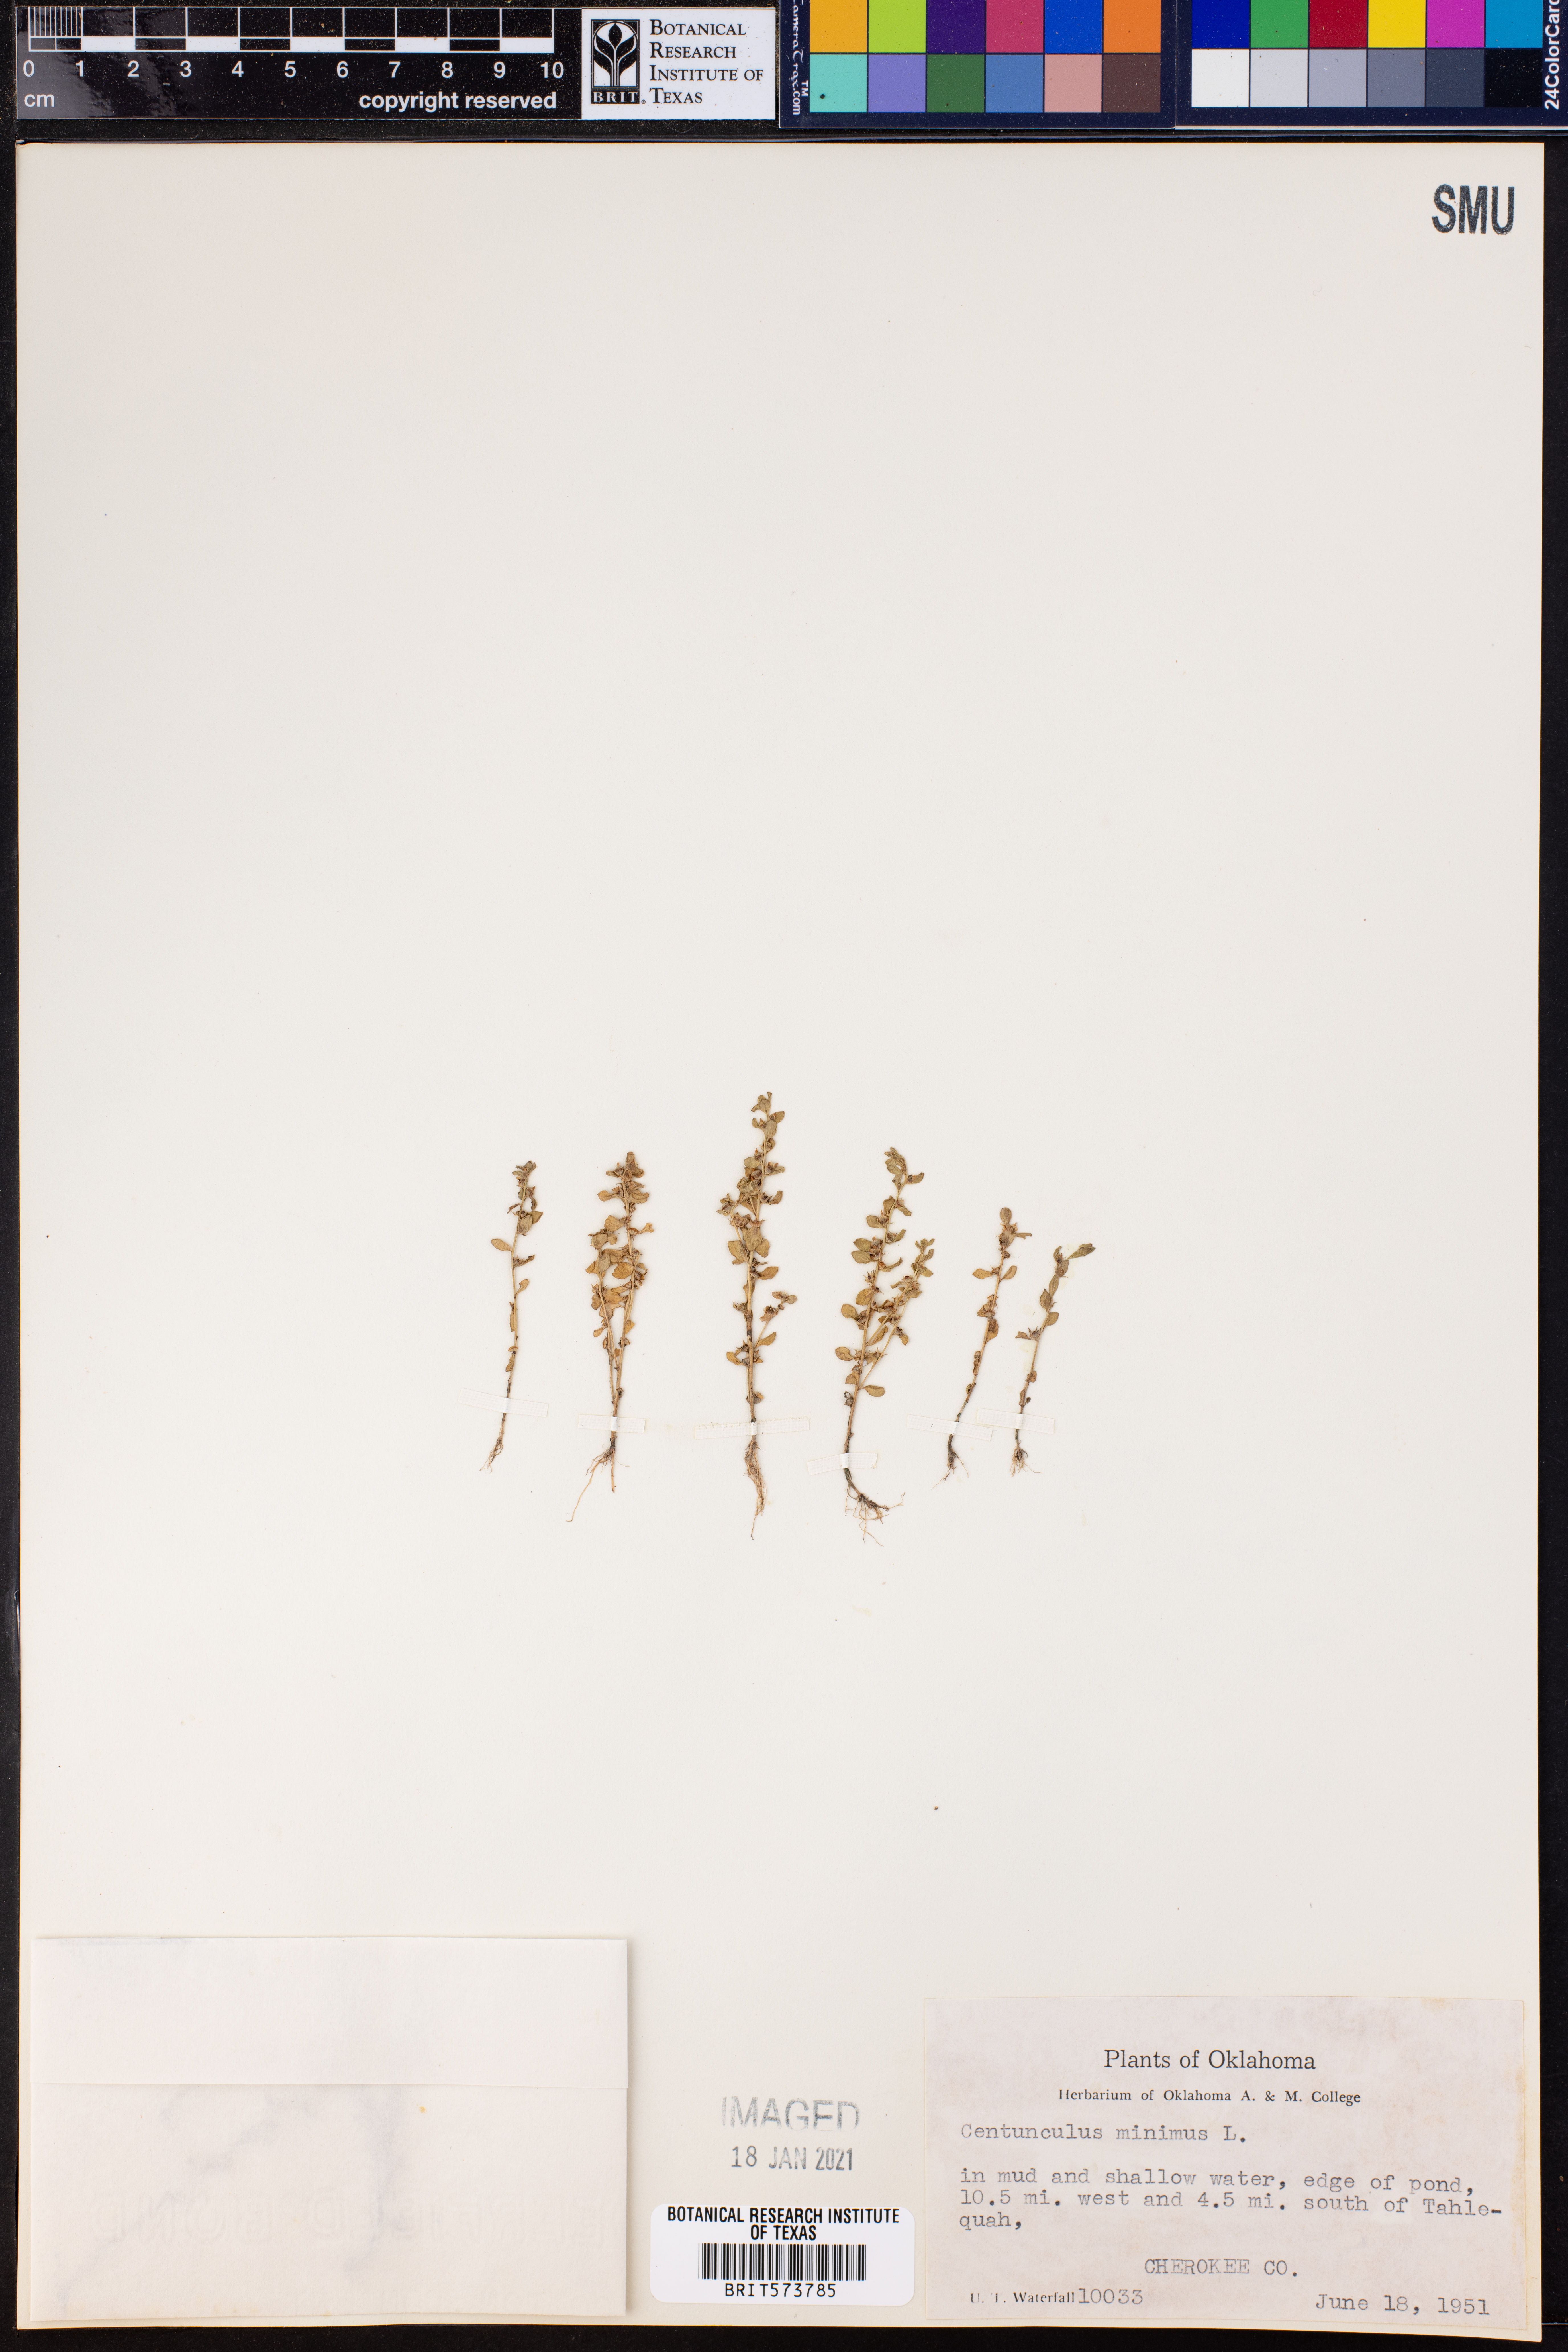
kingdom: Plantae
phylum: Tracheophyta
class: Magnoliopsida
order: Ericales
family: Primulaceae
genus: Lysimachia
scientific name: Lysimachia minima
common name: Chaffweed
